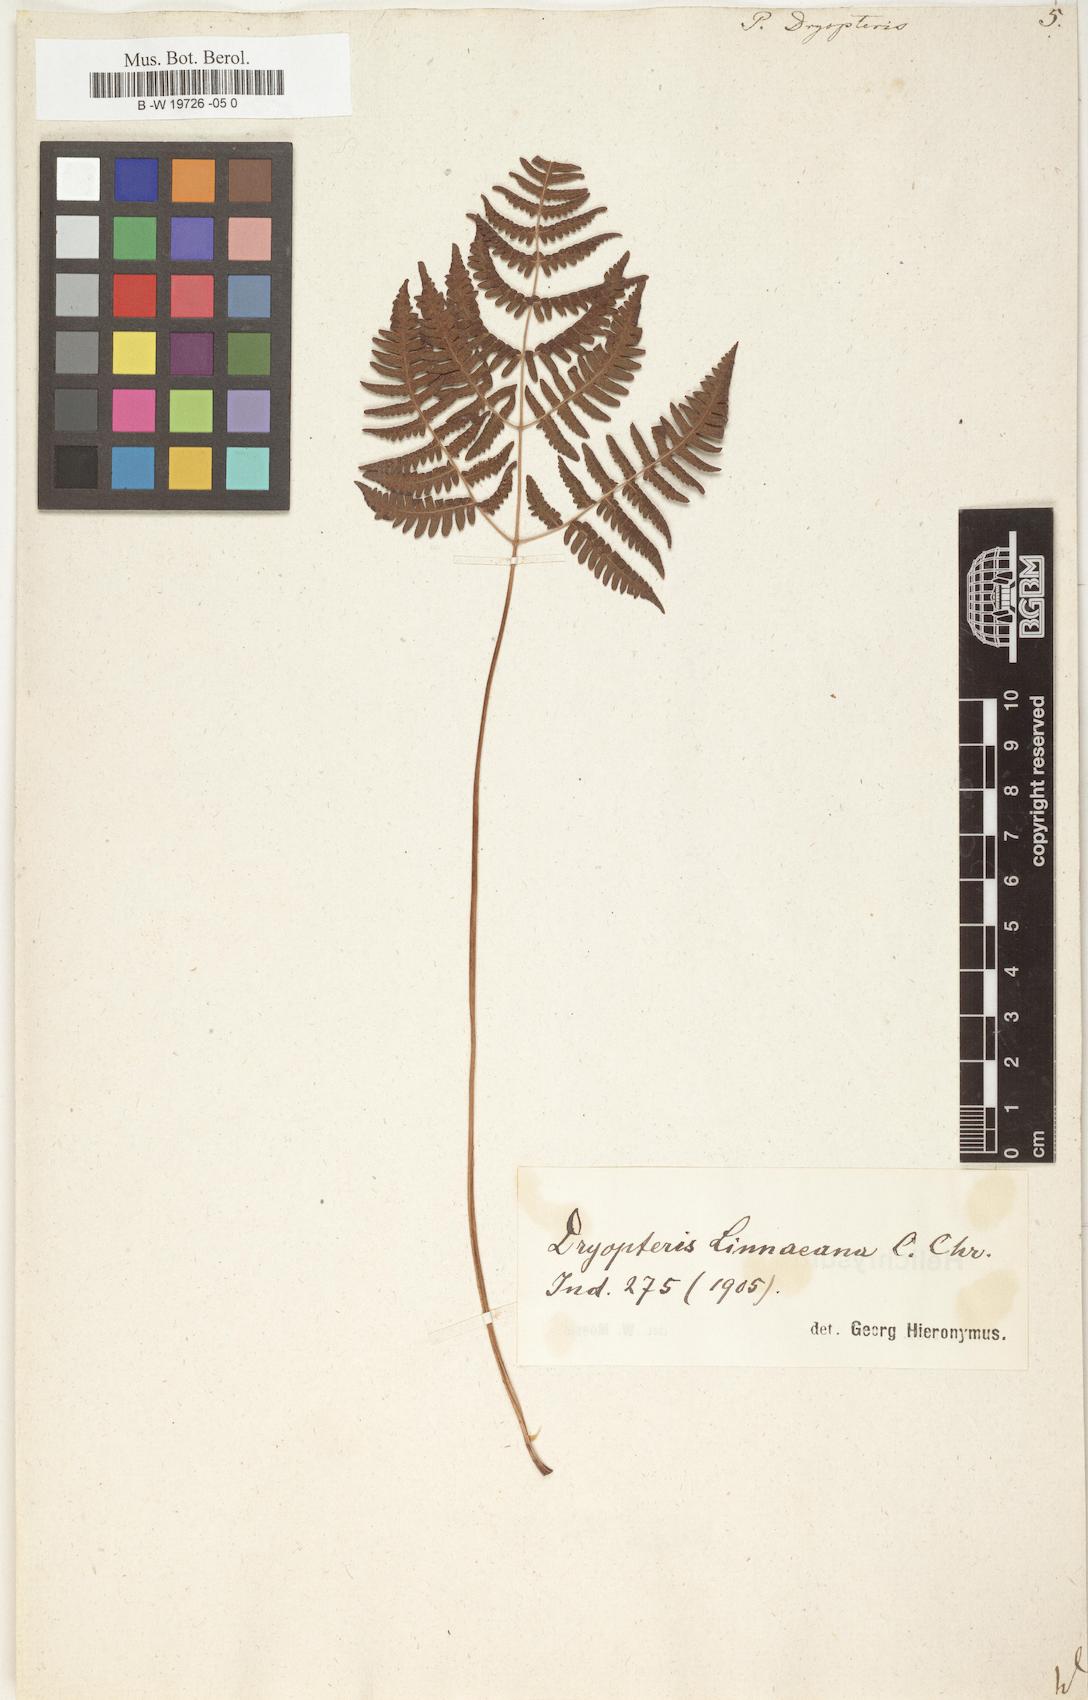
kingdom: Plantae
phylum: Tracheophyta
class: Polypodiopsida
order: Polypodiales
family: Cystopteridaceae
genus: Gymnocarpium
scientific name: Gymnocarpium dryopteris
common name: Oak fern
